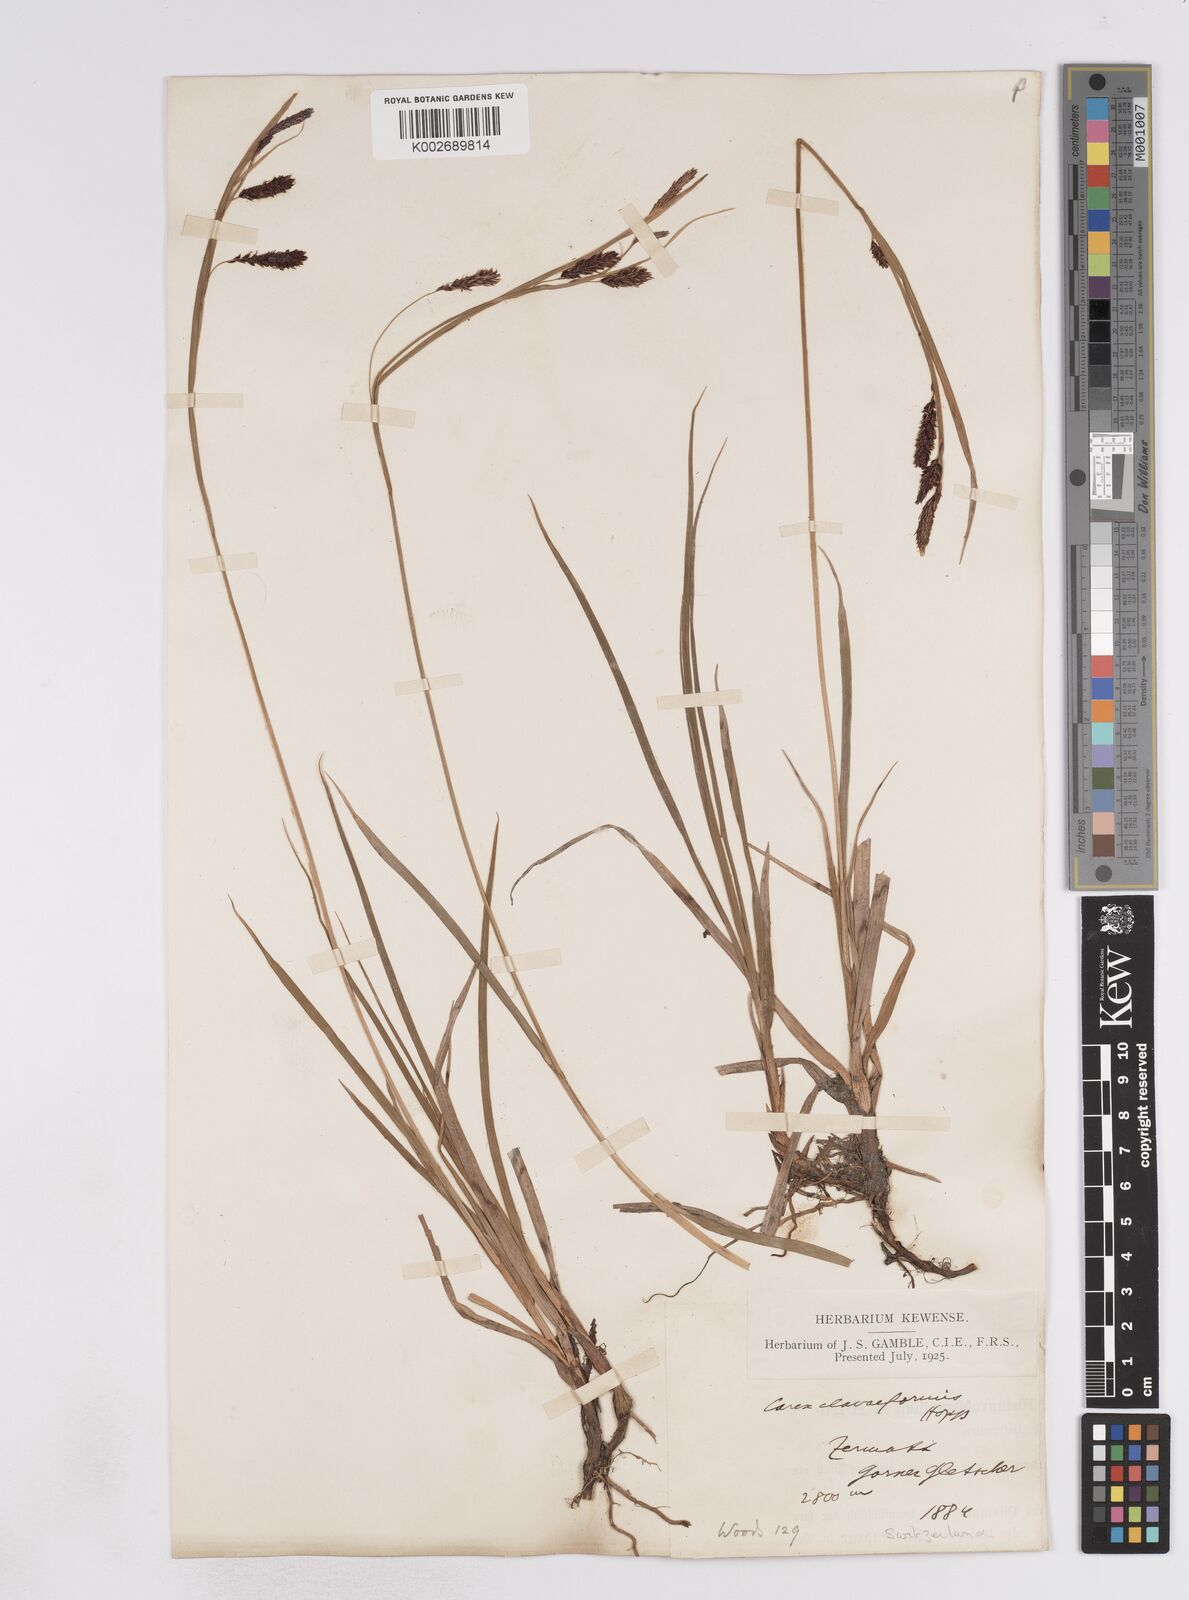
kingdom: Plantae
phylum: Tracheophyta
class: Liliopsida
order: Poales
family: Cyperaceae
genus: Carex
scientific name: Carex flacca
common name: Glaucous sedge
